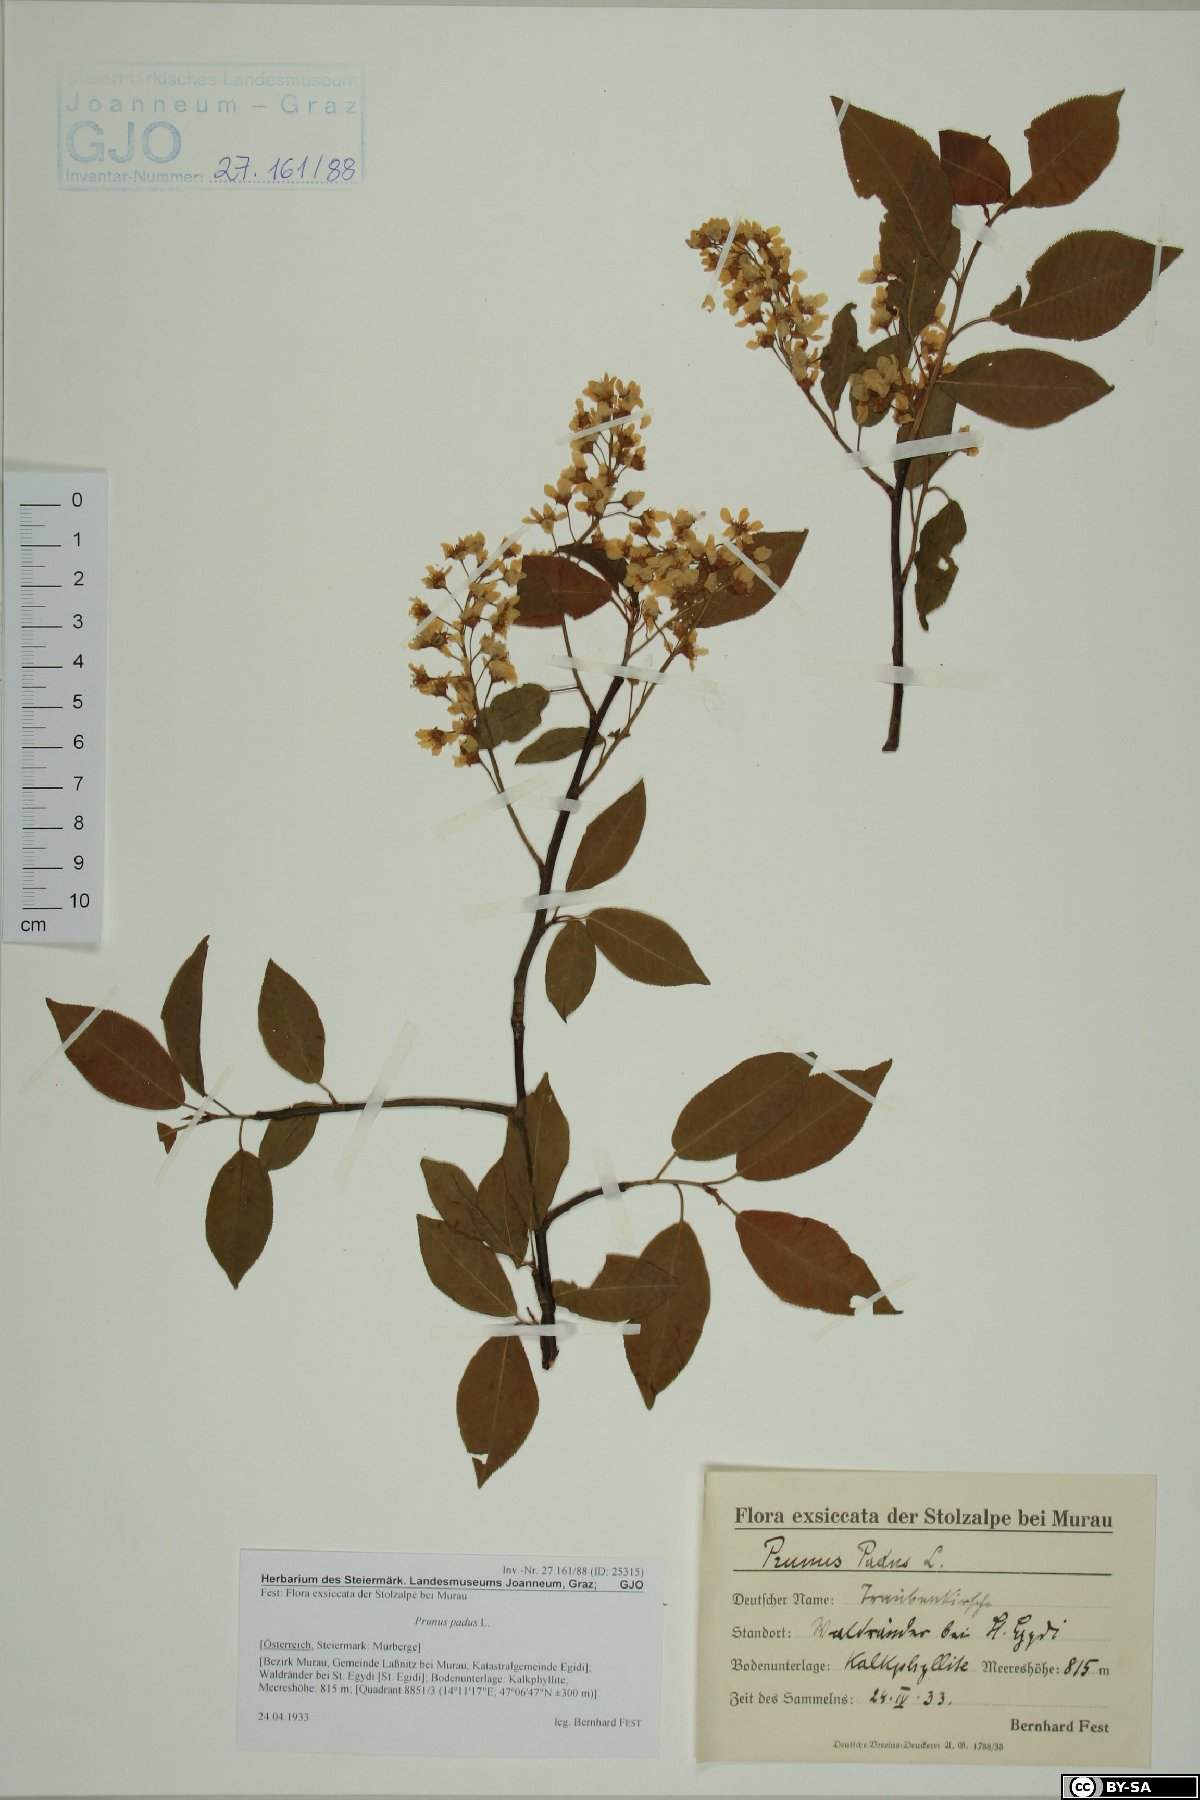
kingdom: Plantae
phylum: Tracheophyta
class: Magnoliopsida
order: Rosales
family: Rosaceae
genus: Prunus
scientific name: Prunus padus
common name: Bird cherry
